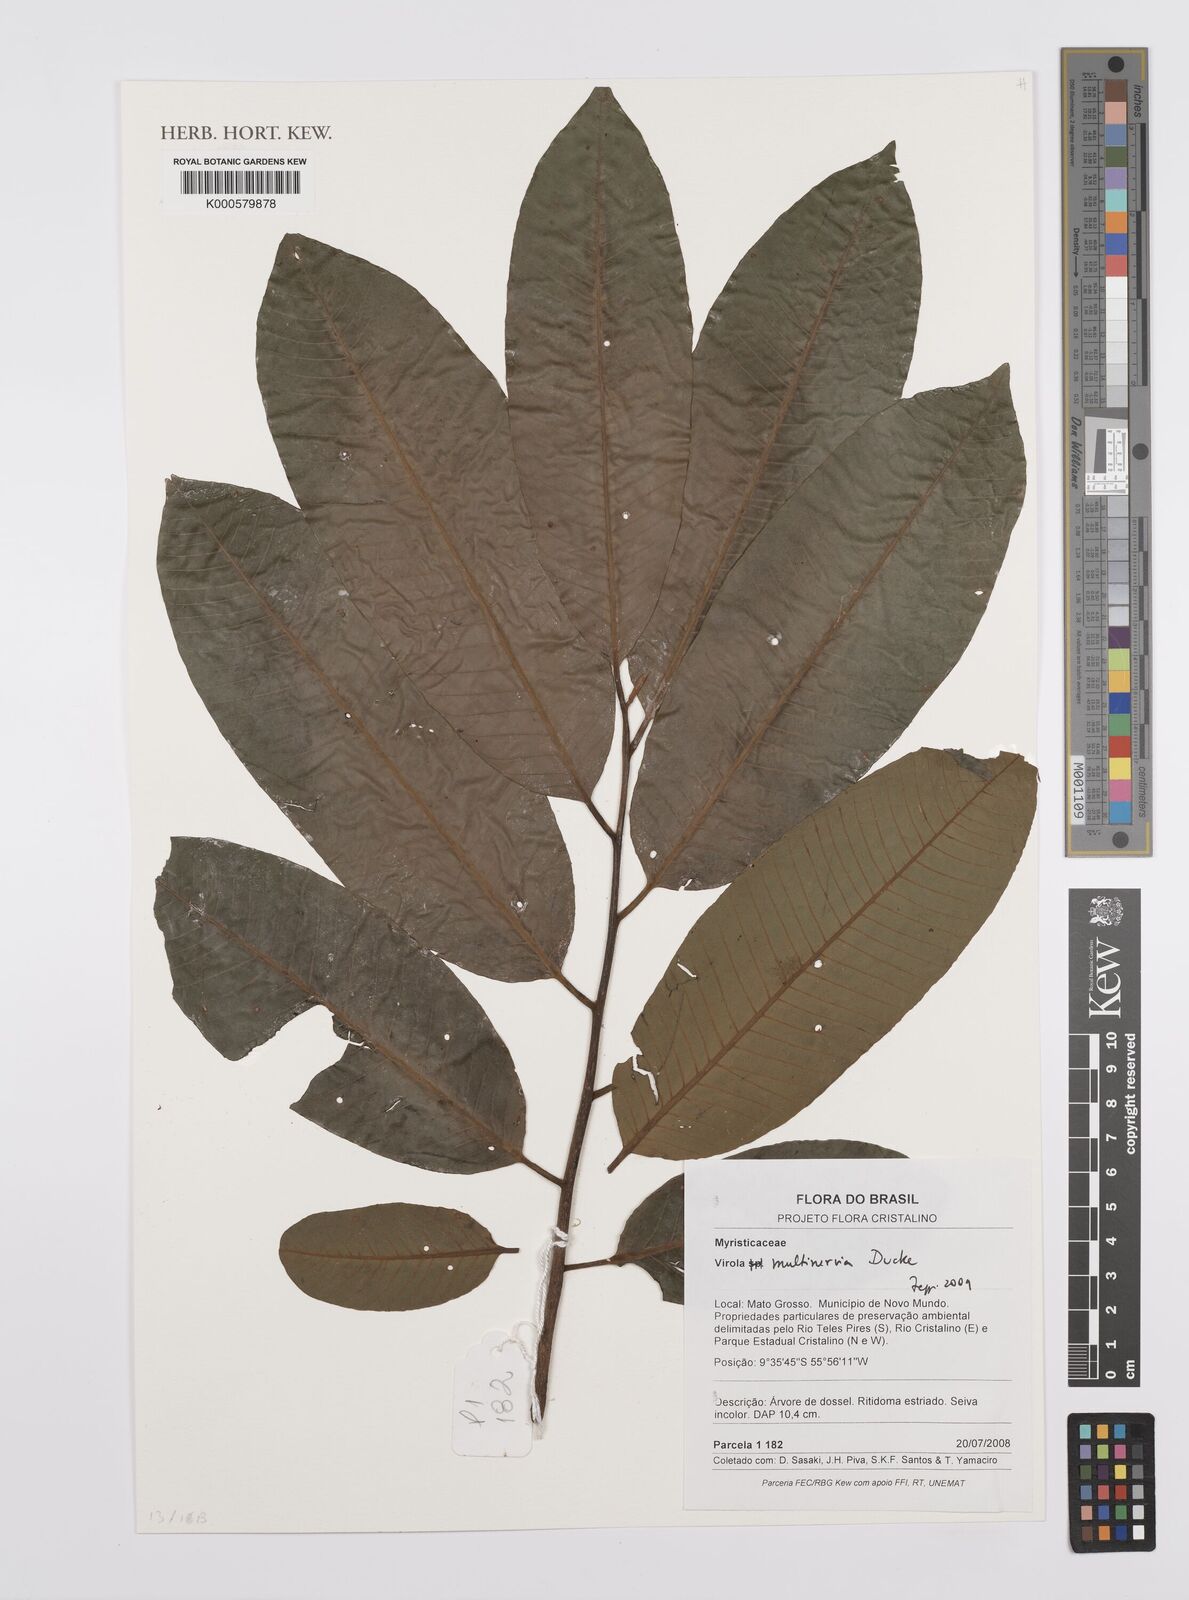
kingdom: Plantae
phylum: Tracheophyta
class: Magnoliopsida
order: Magnoliales
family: Myristicaceae
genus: Virola
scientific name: Virola multinervia
